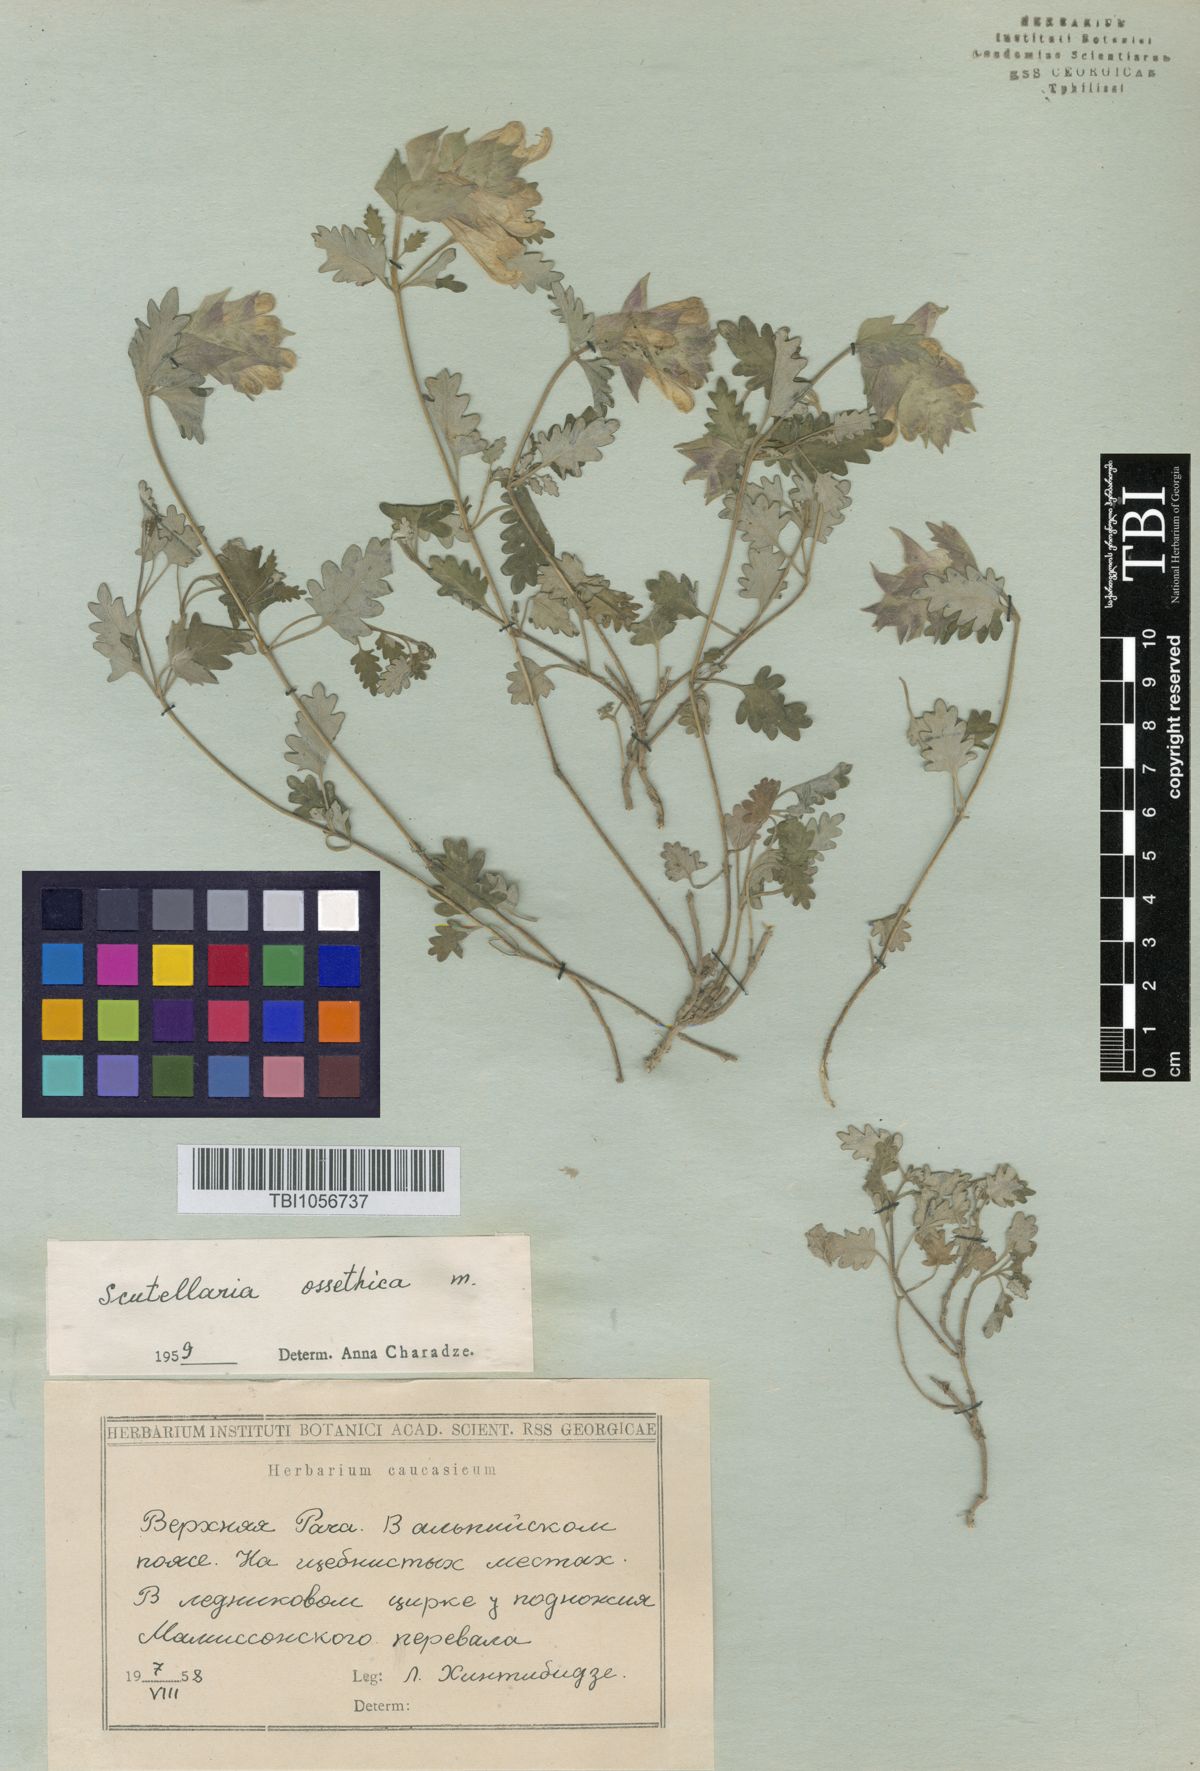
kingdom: Plantae
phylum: Tracheophyta
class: Magnoliopsida
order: Lamiales
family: Lamiaceae
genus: Scutellaria
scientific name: Scutellaria ossethica
